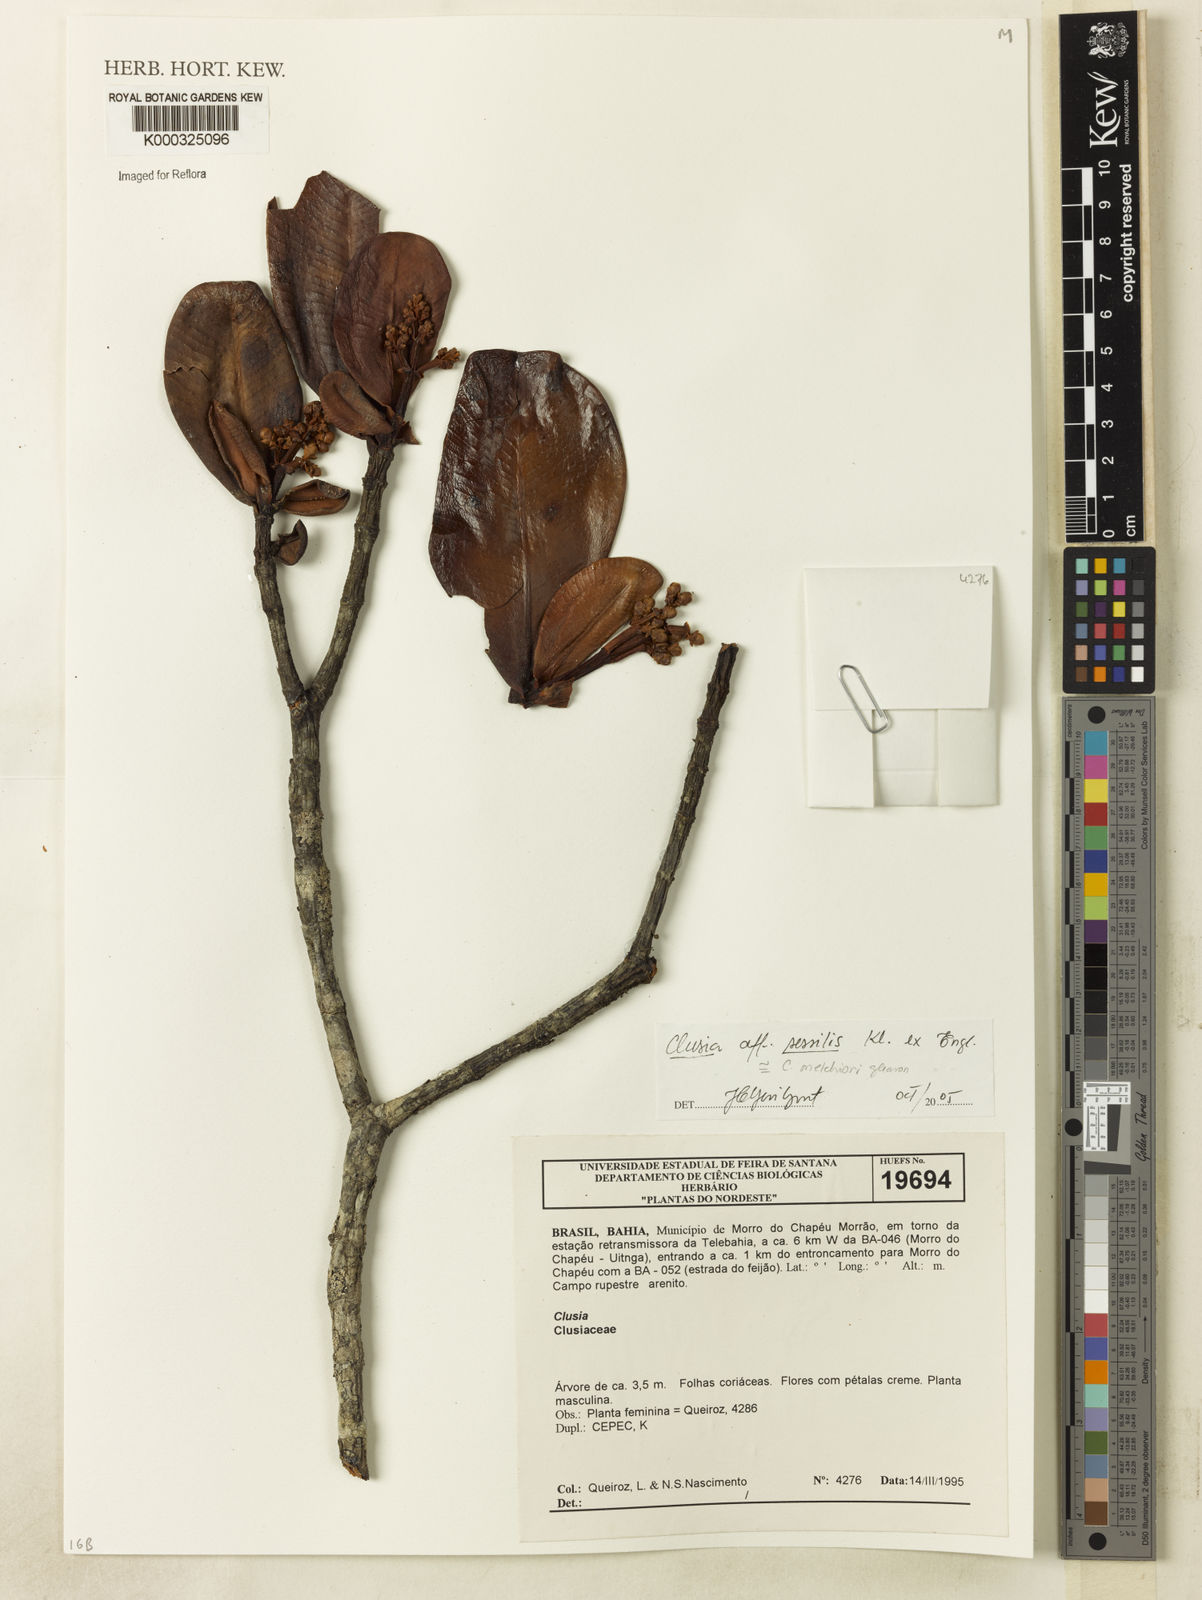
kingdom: Plantae
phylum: Tracheophyta
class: Magnoliopsida
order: Malpighiales
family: Clusiaceae
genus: Clusia
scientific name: Clusia
